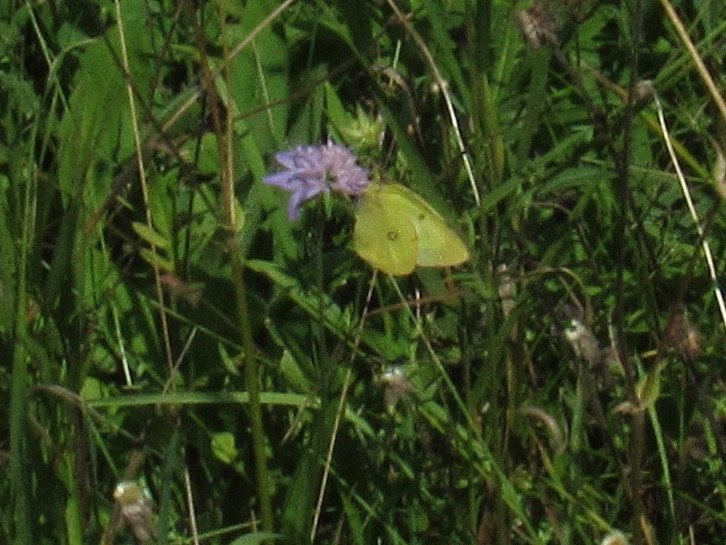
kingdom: Animalia
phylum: Arthropoda
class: Insecta
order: Lepidoptera
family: Pieridae
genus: Colias
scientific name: Colias philodice
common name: Clouded Sulphur
